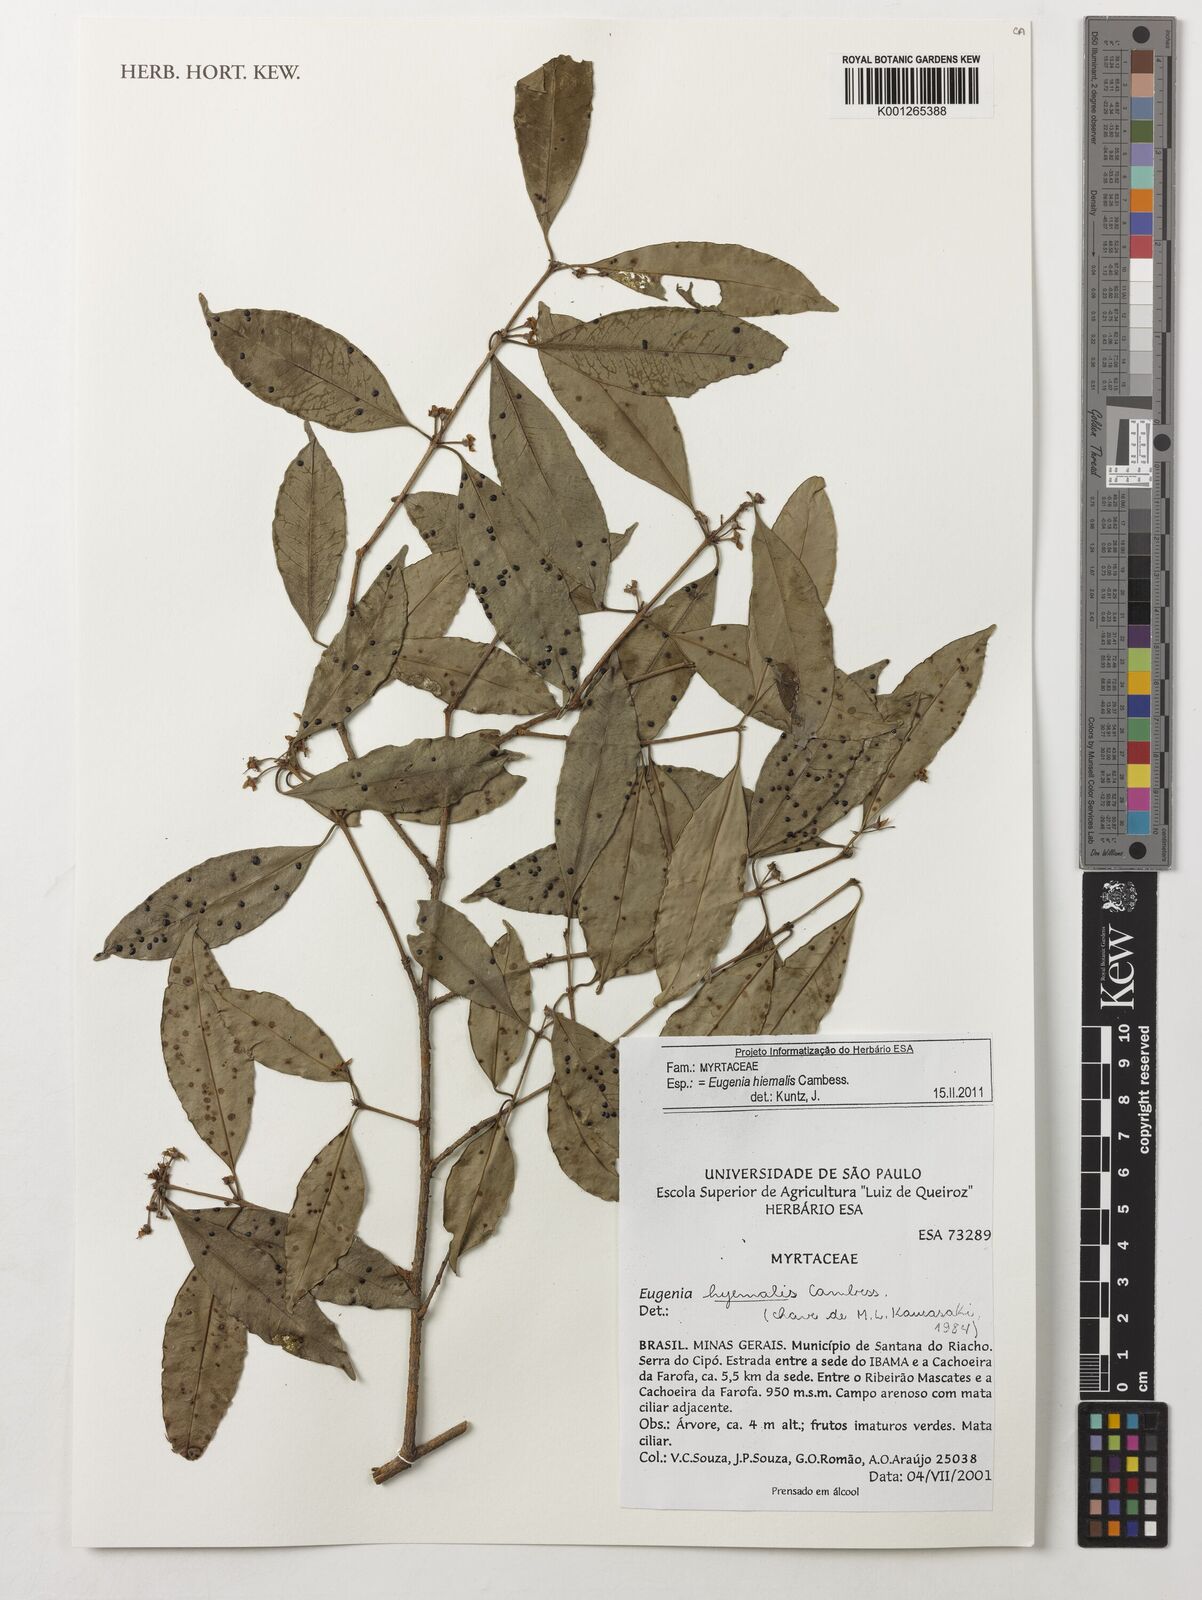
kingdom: Plantae
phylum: Tracheophyta
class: Magnoliopsida
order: Myrtales
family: Myrtaceae
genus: Eugenia
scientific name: Eugenia hiemalis
